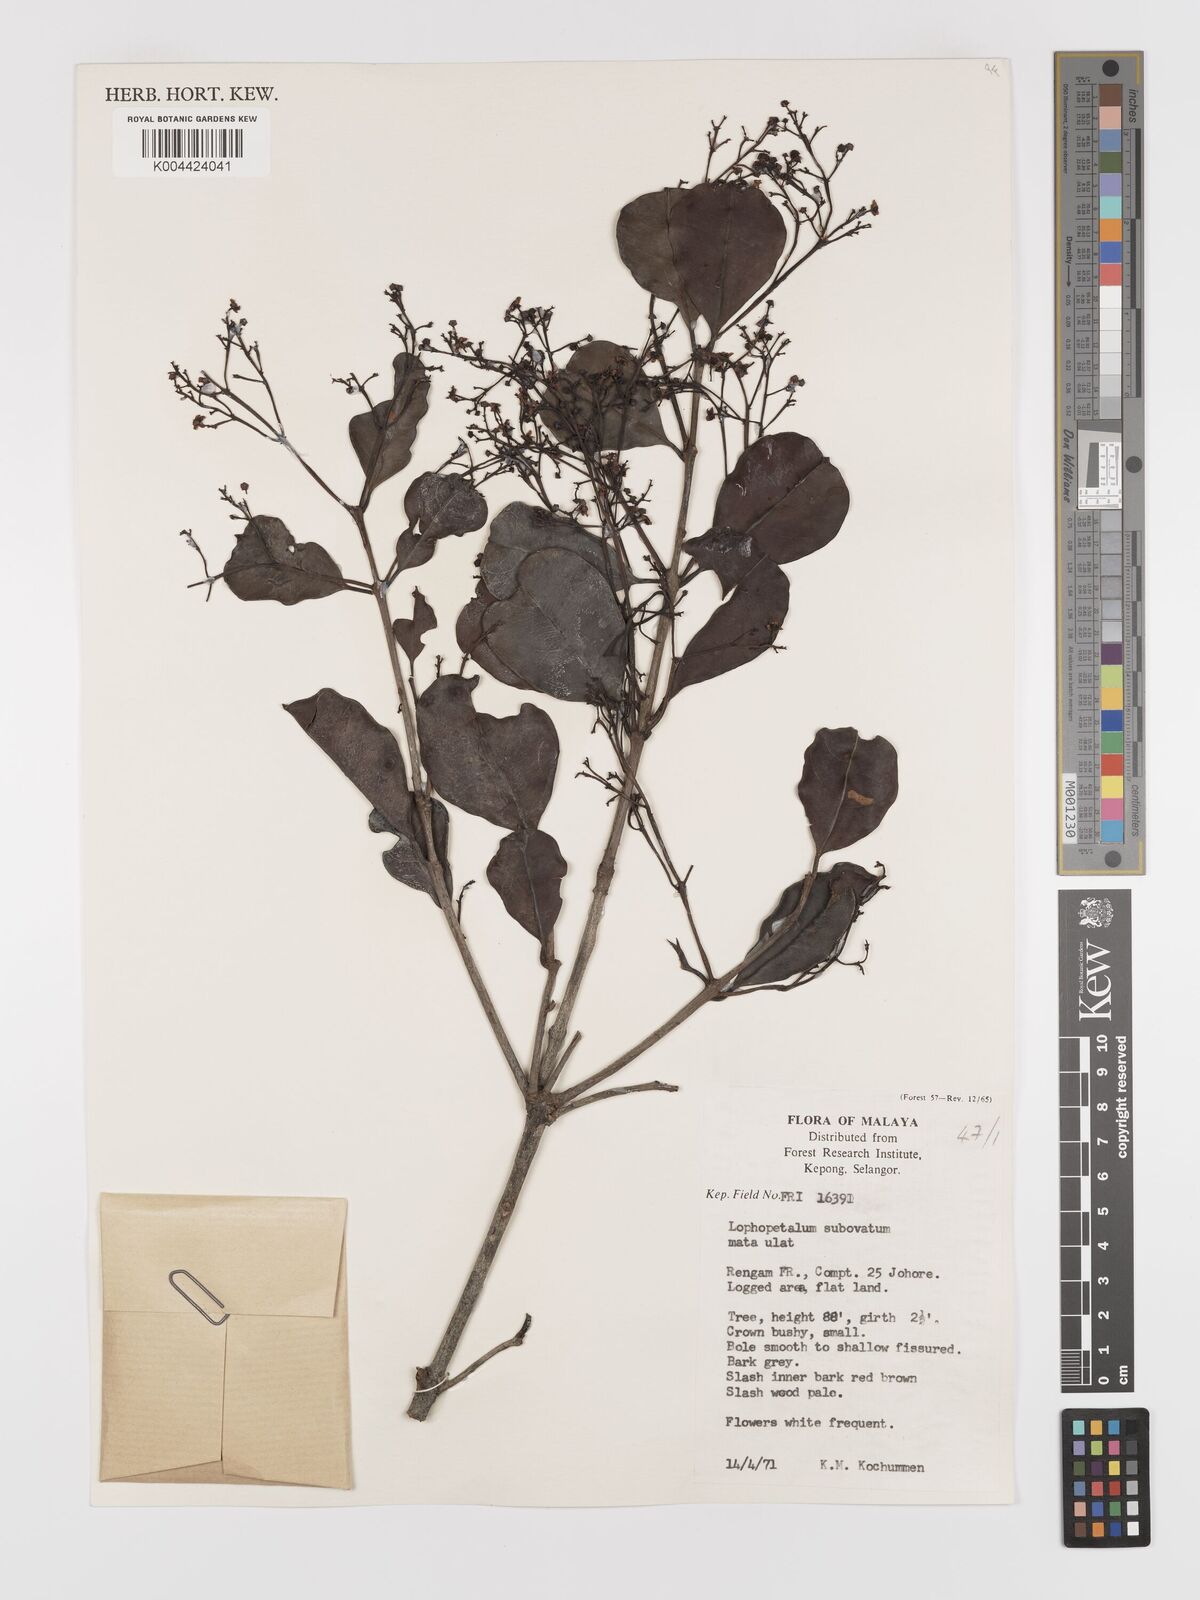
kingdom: Plantae
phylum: Tracheophyta
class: Magnoliopsida
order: Celastrales
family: Celastraceae
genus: Lophopetalum
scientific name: Lophopetalum subobovatum
